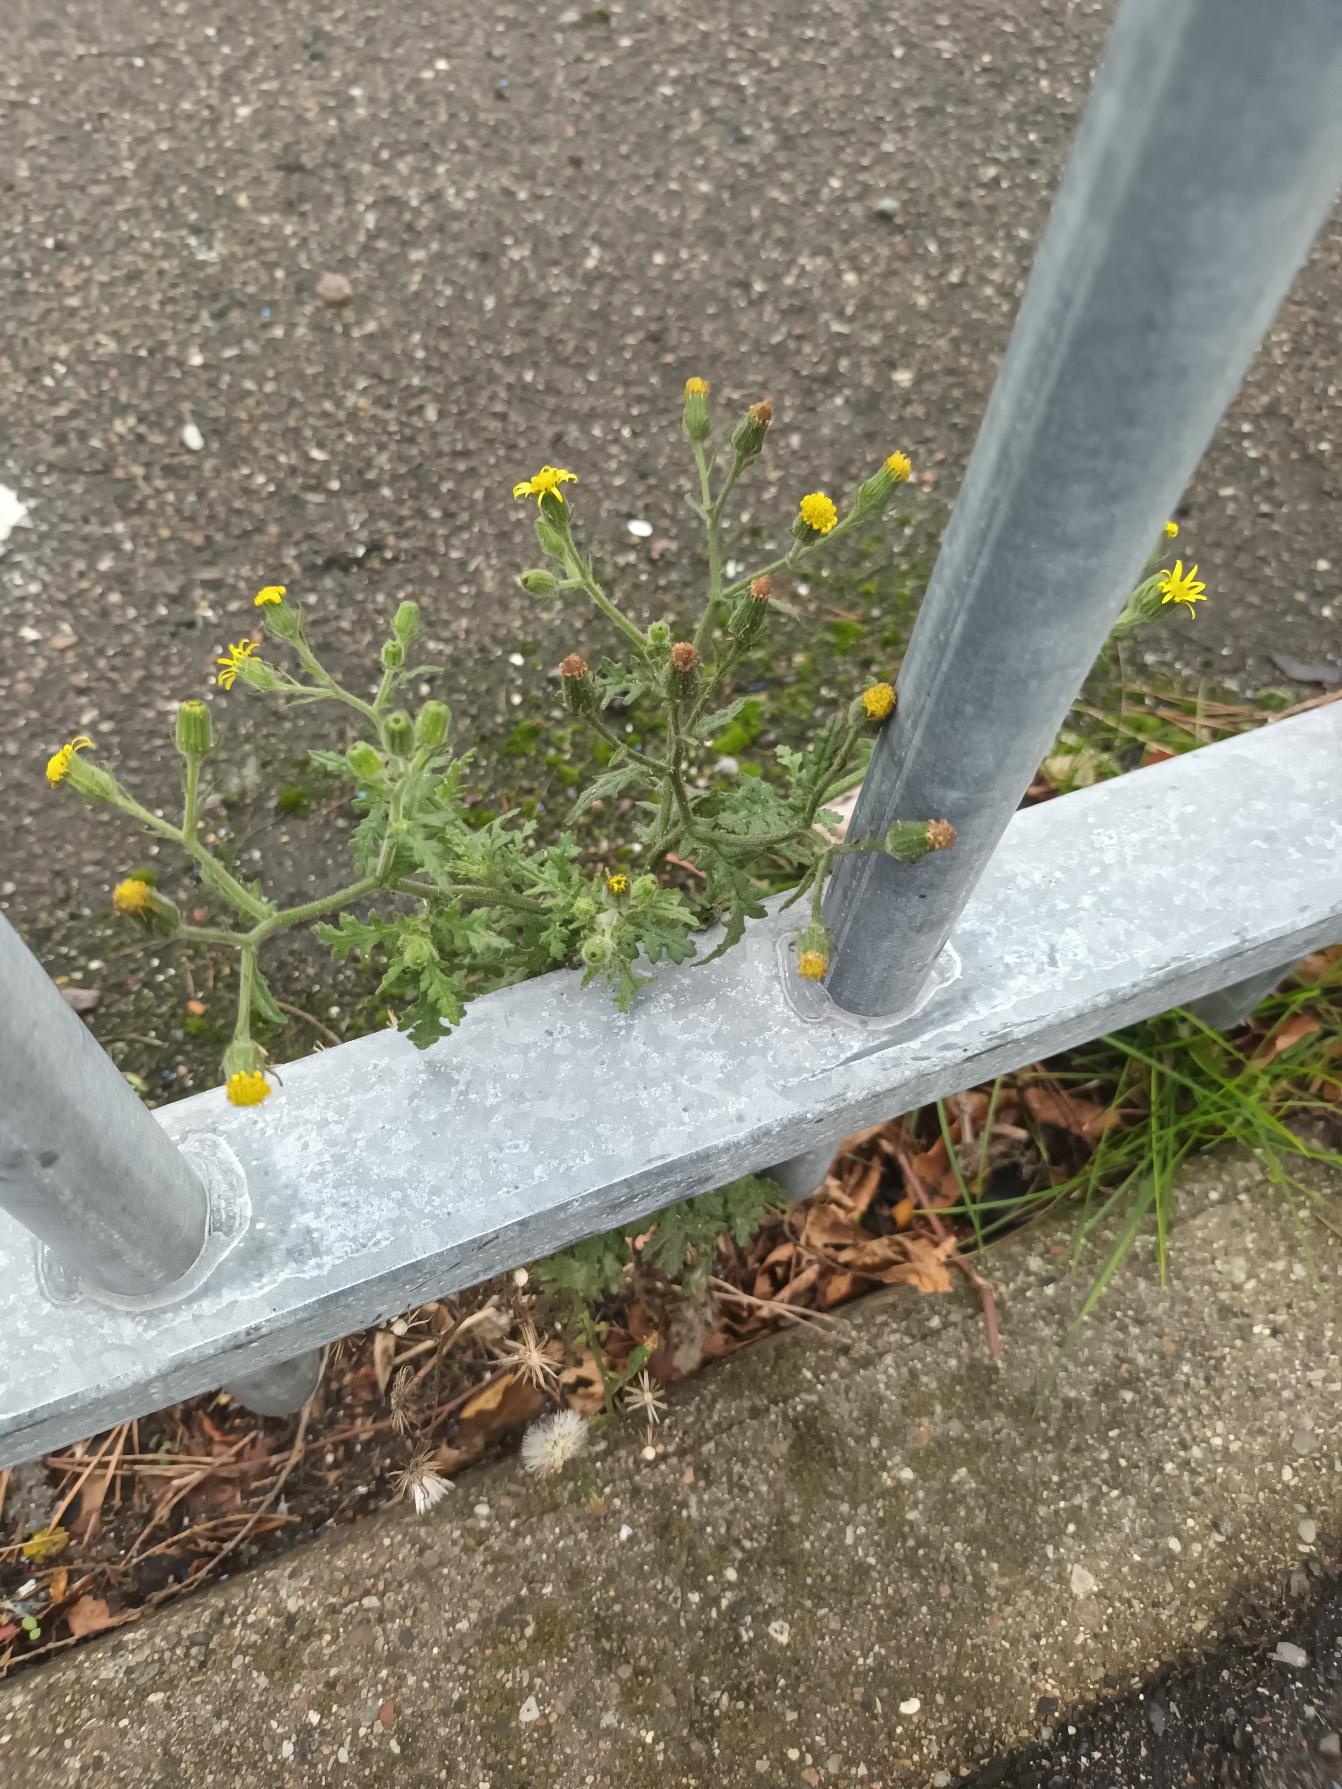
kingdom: Plantae
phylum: Tracheophyta
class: Magnoliopsida
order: Asterales
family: Asteraceae
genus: Senecio
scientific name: Senecio viscosus
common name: Klæbrig brandbæger
